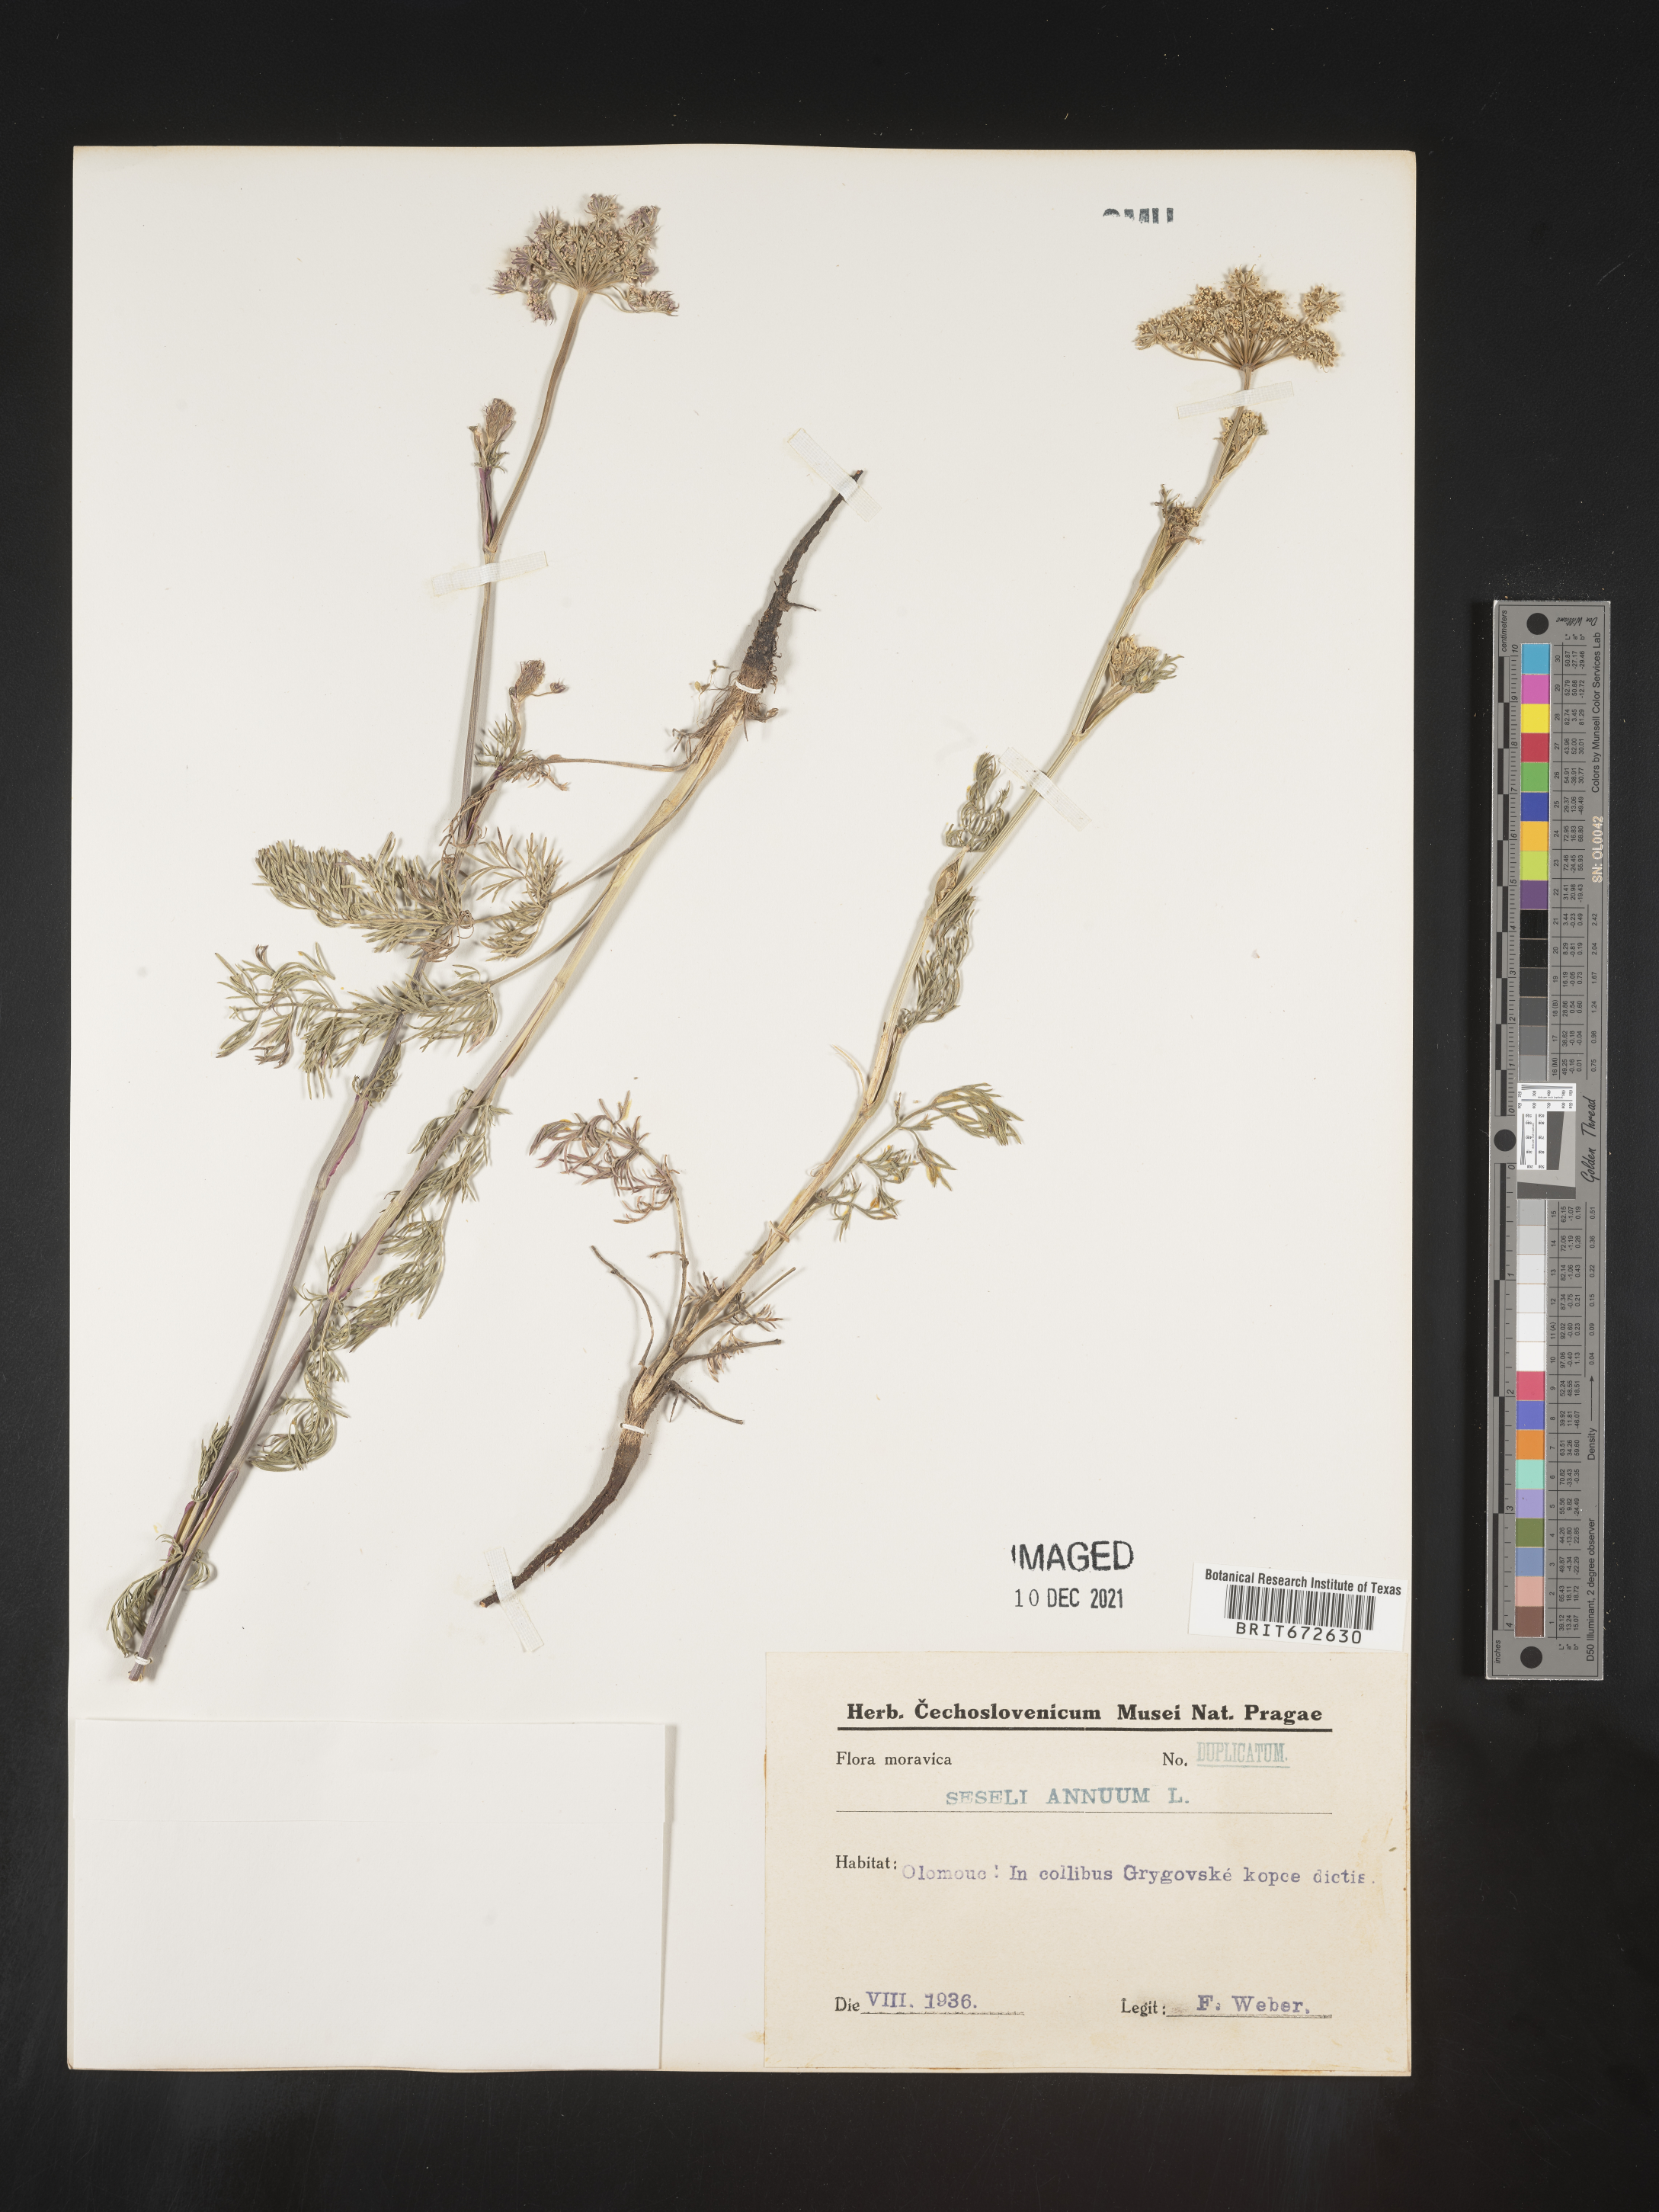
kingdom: Plantae
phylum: Tracheophyta
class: Magnoliopsida
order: Apiales
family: Apiaceae
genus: Seseli
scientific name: Seseli
